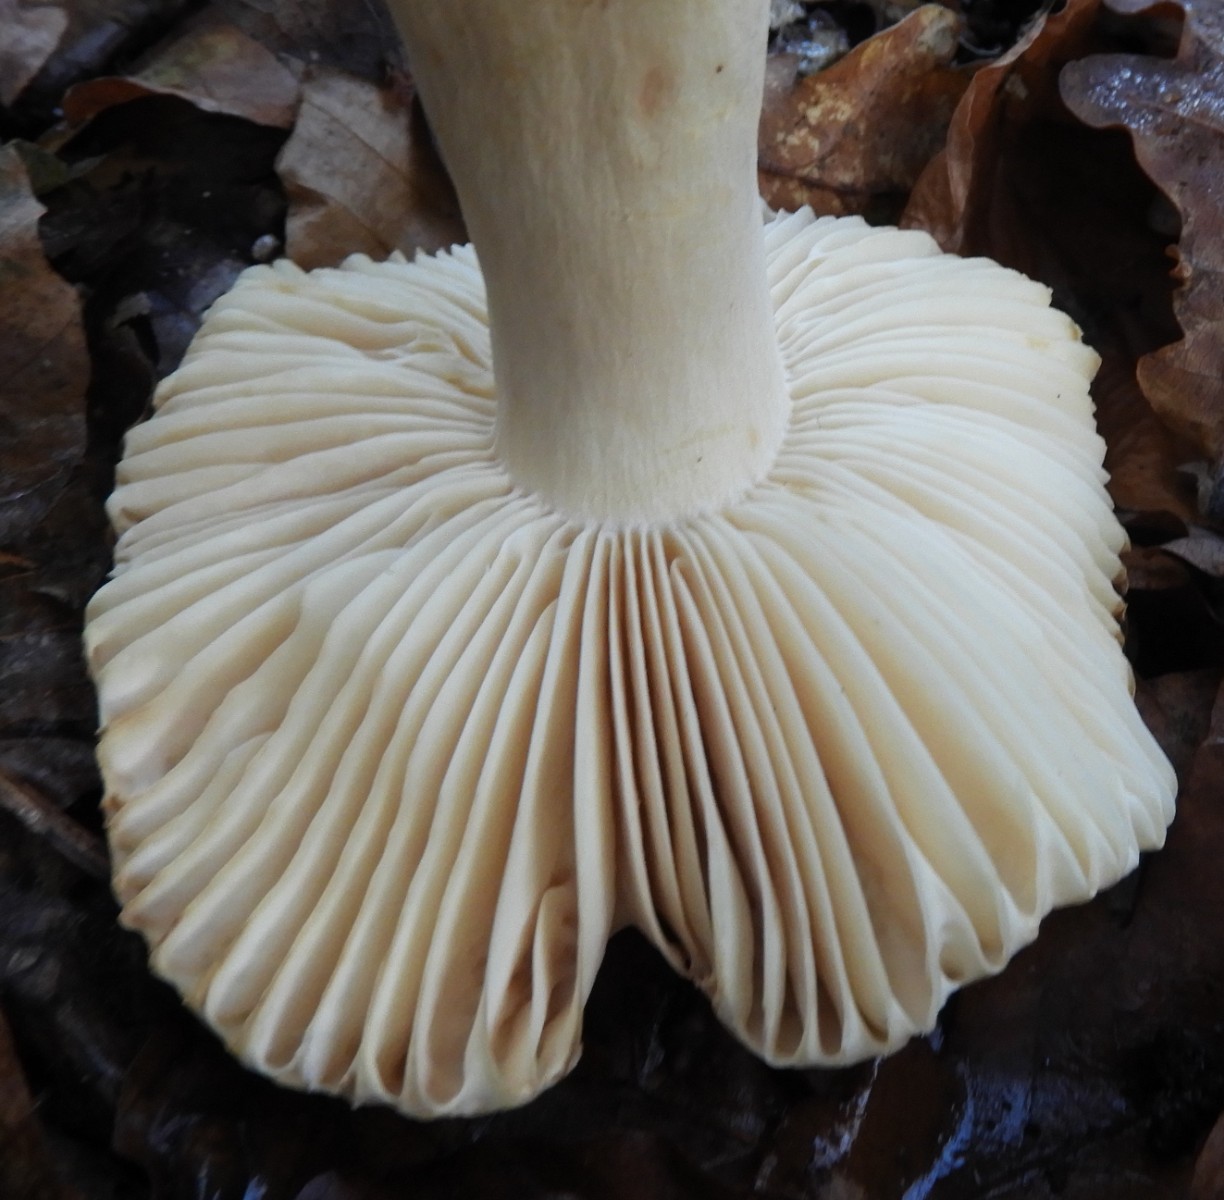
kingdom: Fungi
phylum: Basidiomycota
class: Agaricomycetes
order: Russulales
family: Russulaceae
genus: Russula
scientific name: Russula fellea
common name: galde-skørhat
